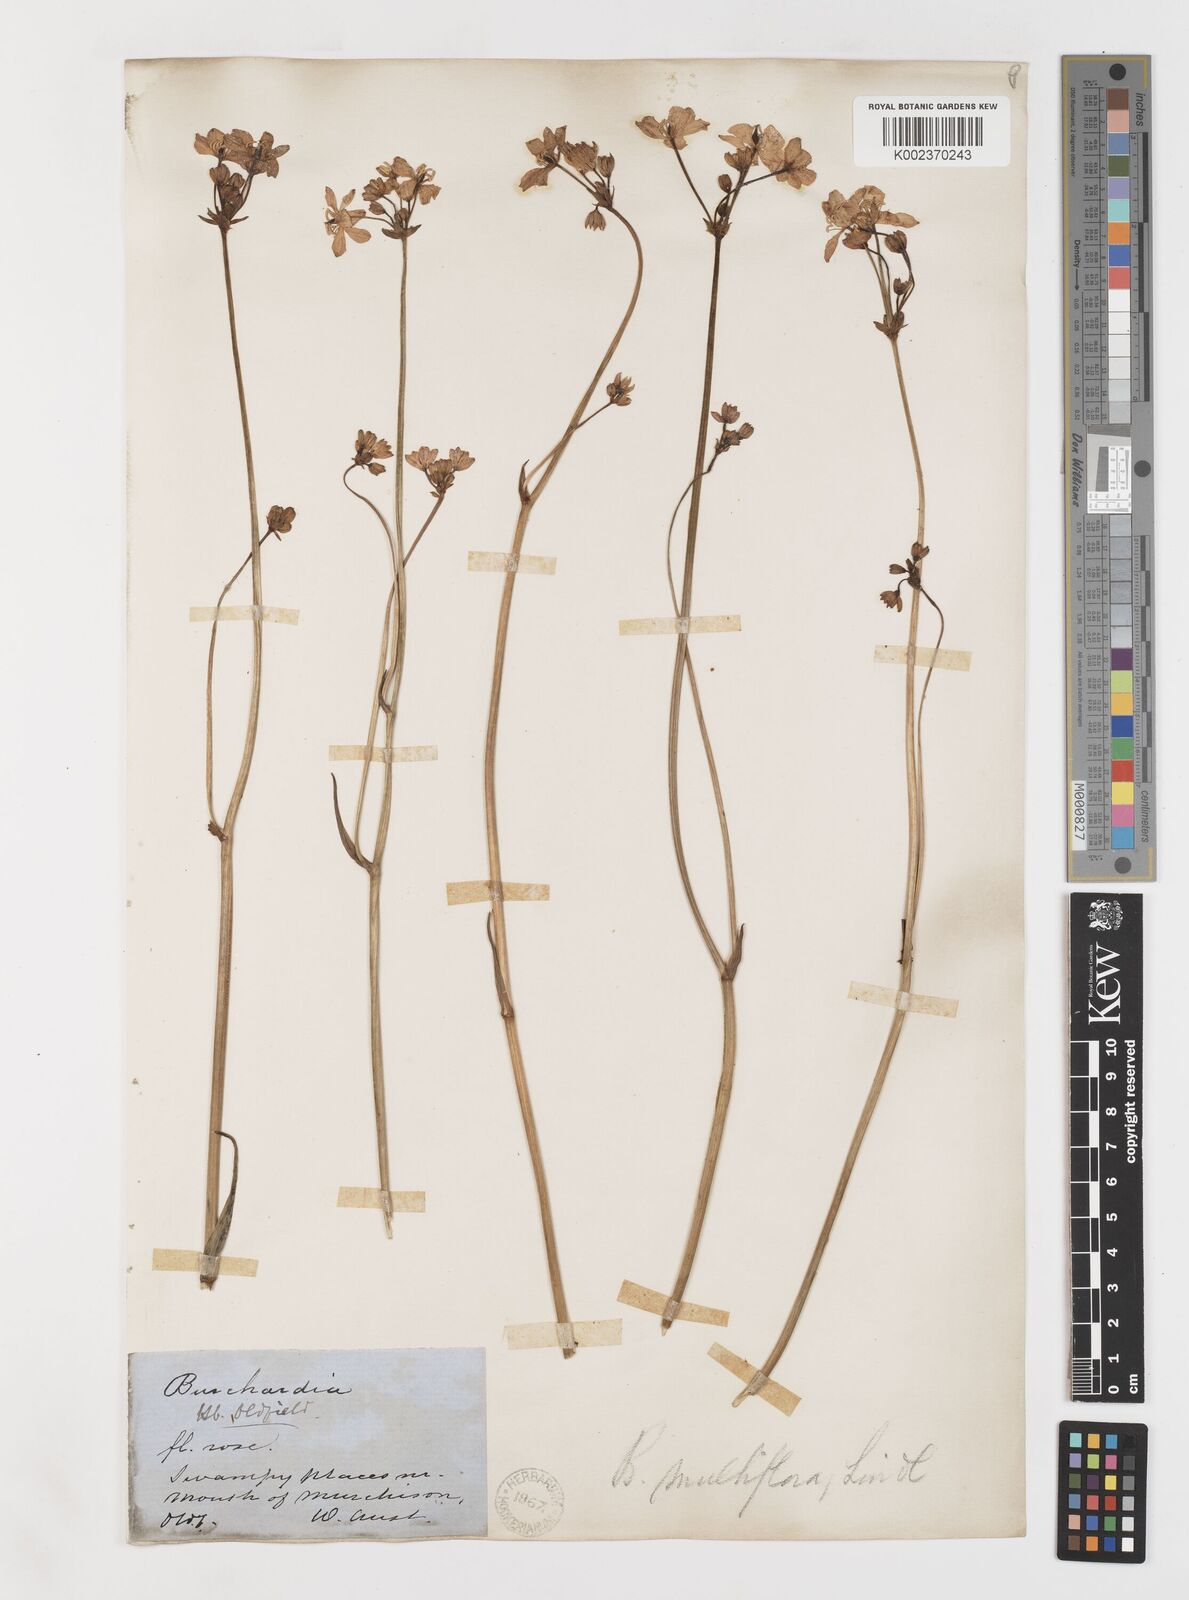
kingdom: Plantae
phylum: Tracheophyta
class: Liliopsida
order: Liliales
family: Colchicaceae
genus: Burchardia
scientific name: Burchardia multiflora
